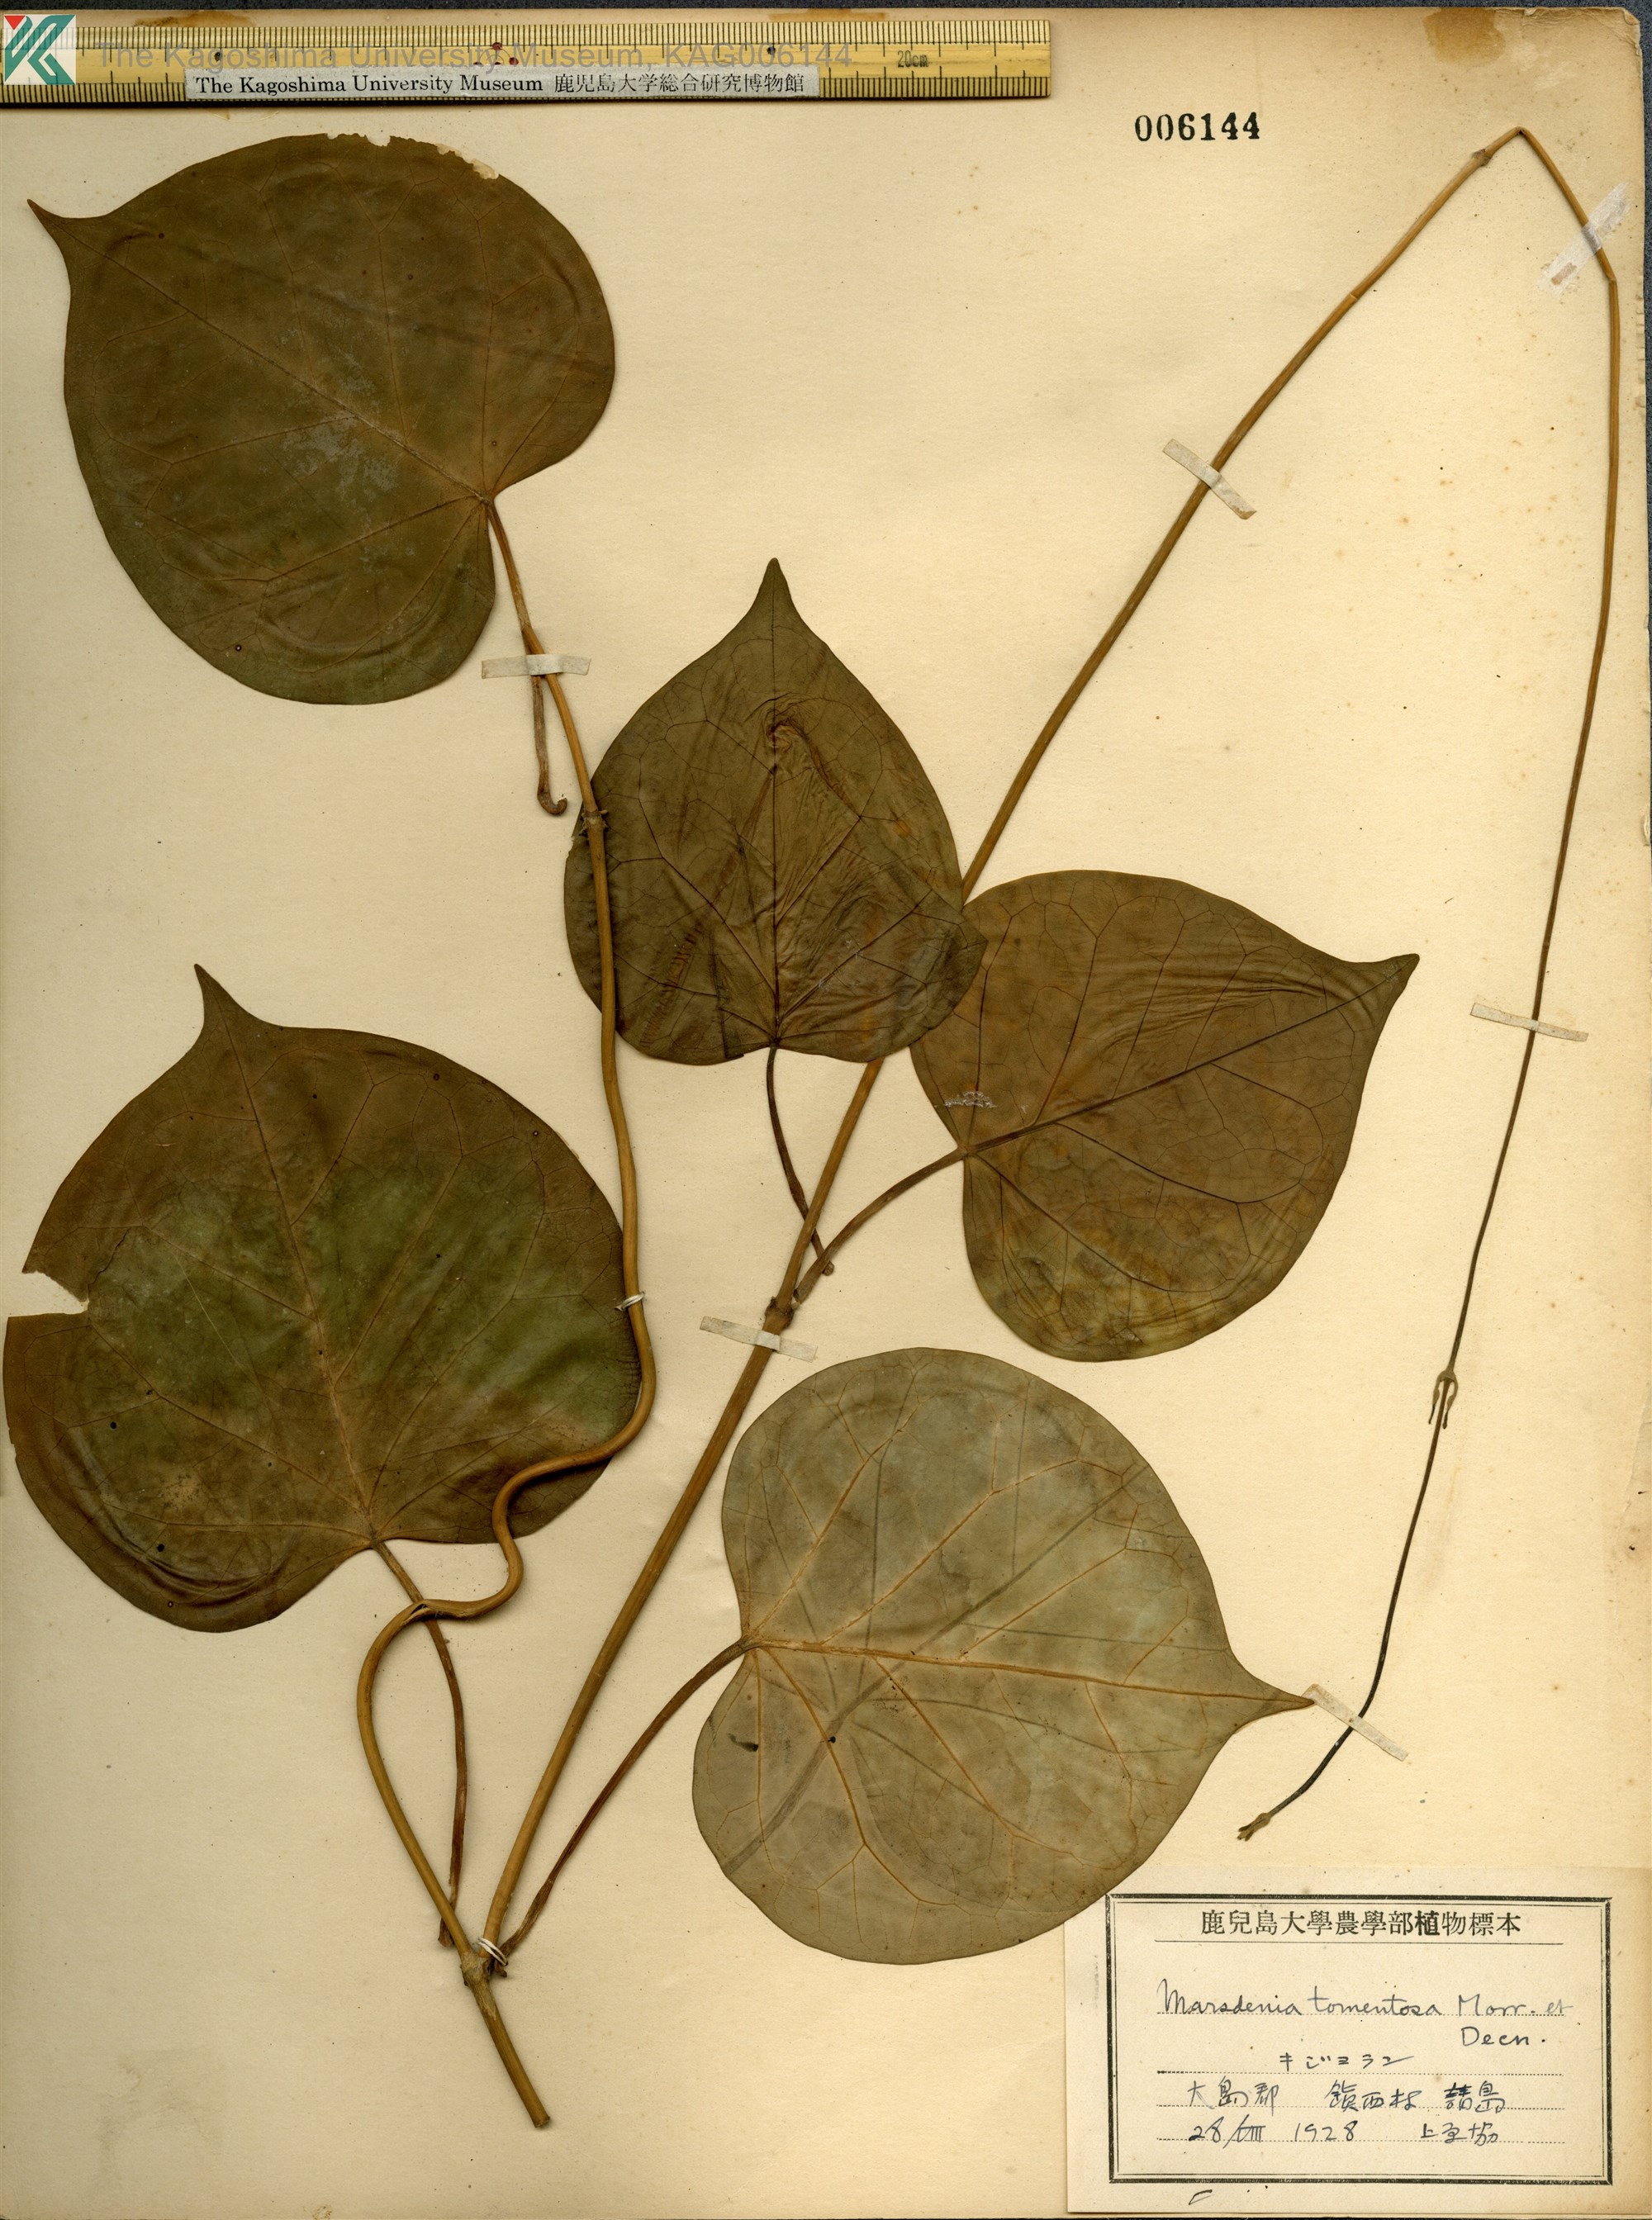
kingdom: Plantae
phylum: Tracheophyta
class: Magnoliopsida
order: Gentianales
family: Apocynaceae
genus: Sinomarsdenia
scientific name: Sinomarsdenia tomentosa
